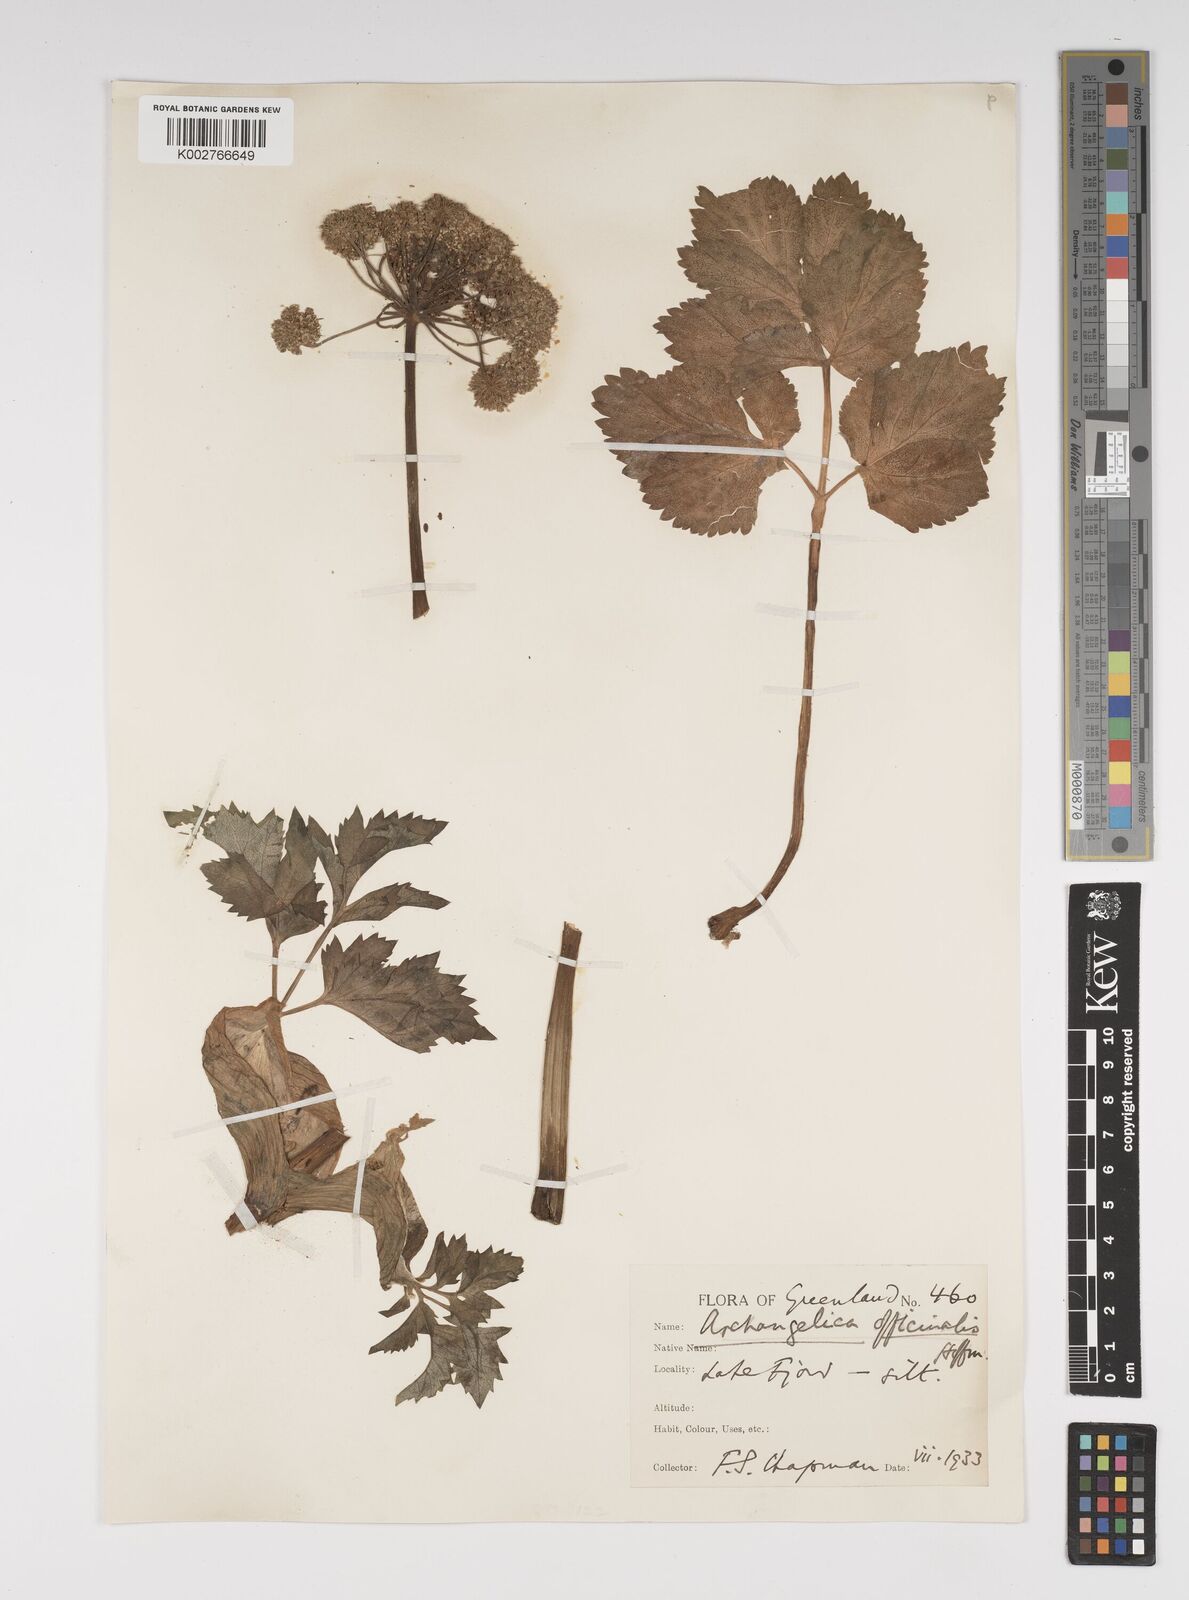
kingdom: Plantae
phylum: Tracheophyta
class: Magnoliopsida
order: Apiales
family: Apiaceae
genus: Angelica
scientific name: Angelica archangelica
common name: Garden angelica
